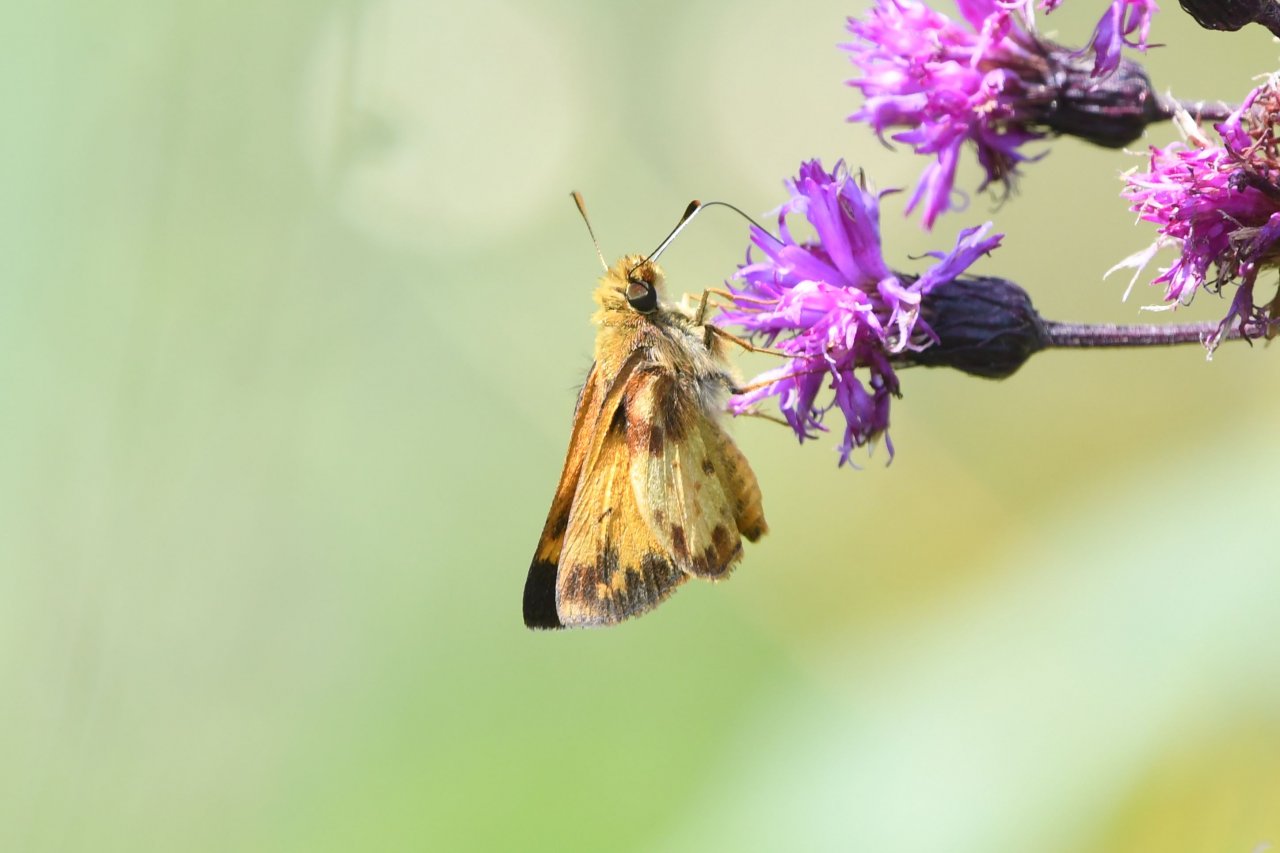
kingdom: Animalia
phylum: Arthropoda
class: Insecta
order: Lepidoptera
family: Hesperiidae
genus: Lon
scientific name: Lon zabulon
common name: Zabulon Skipper
